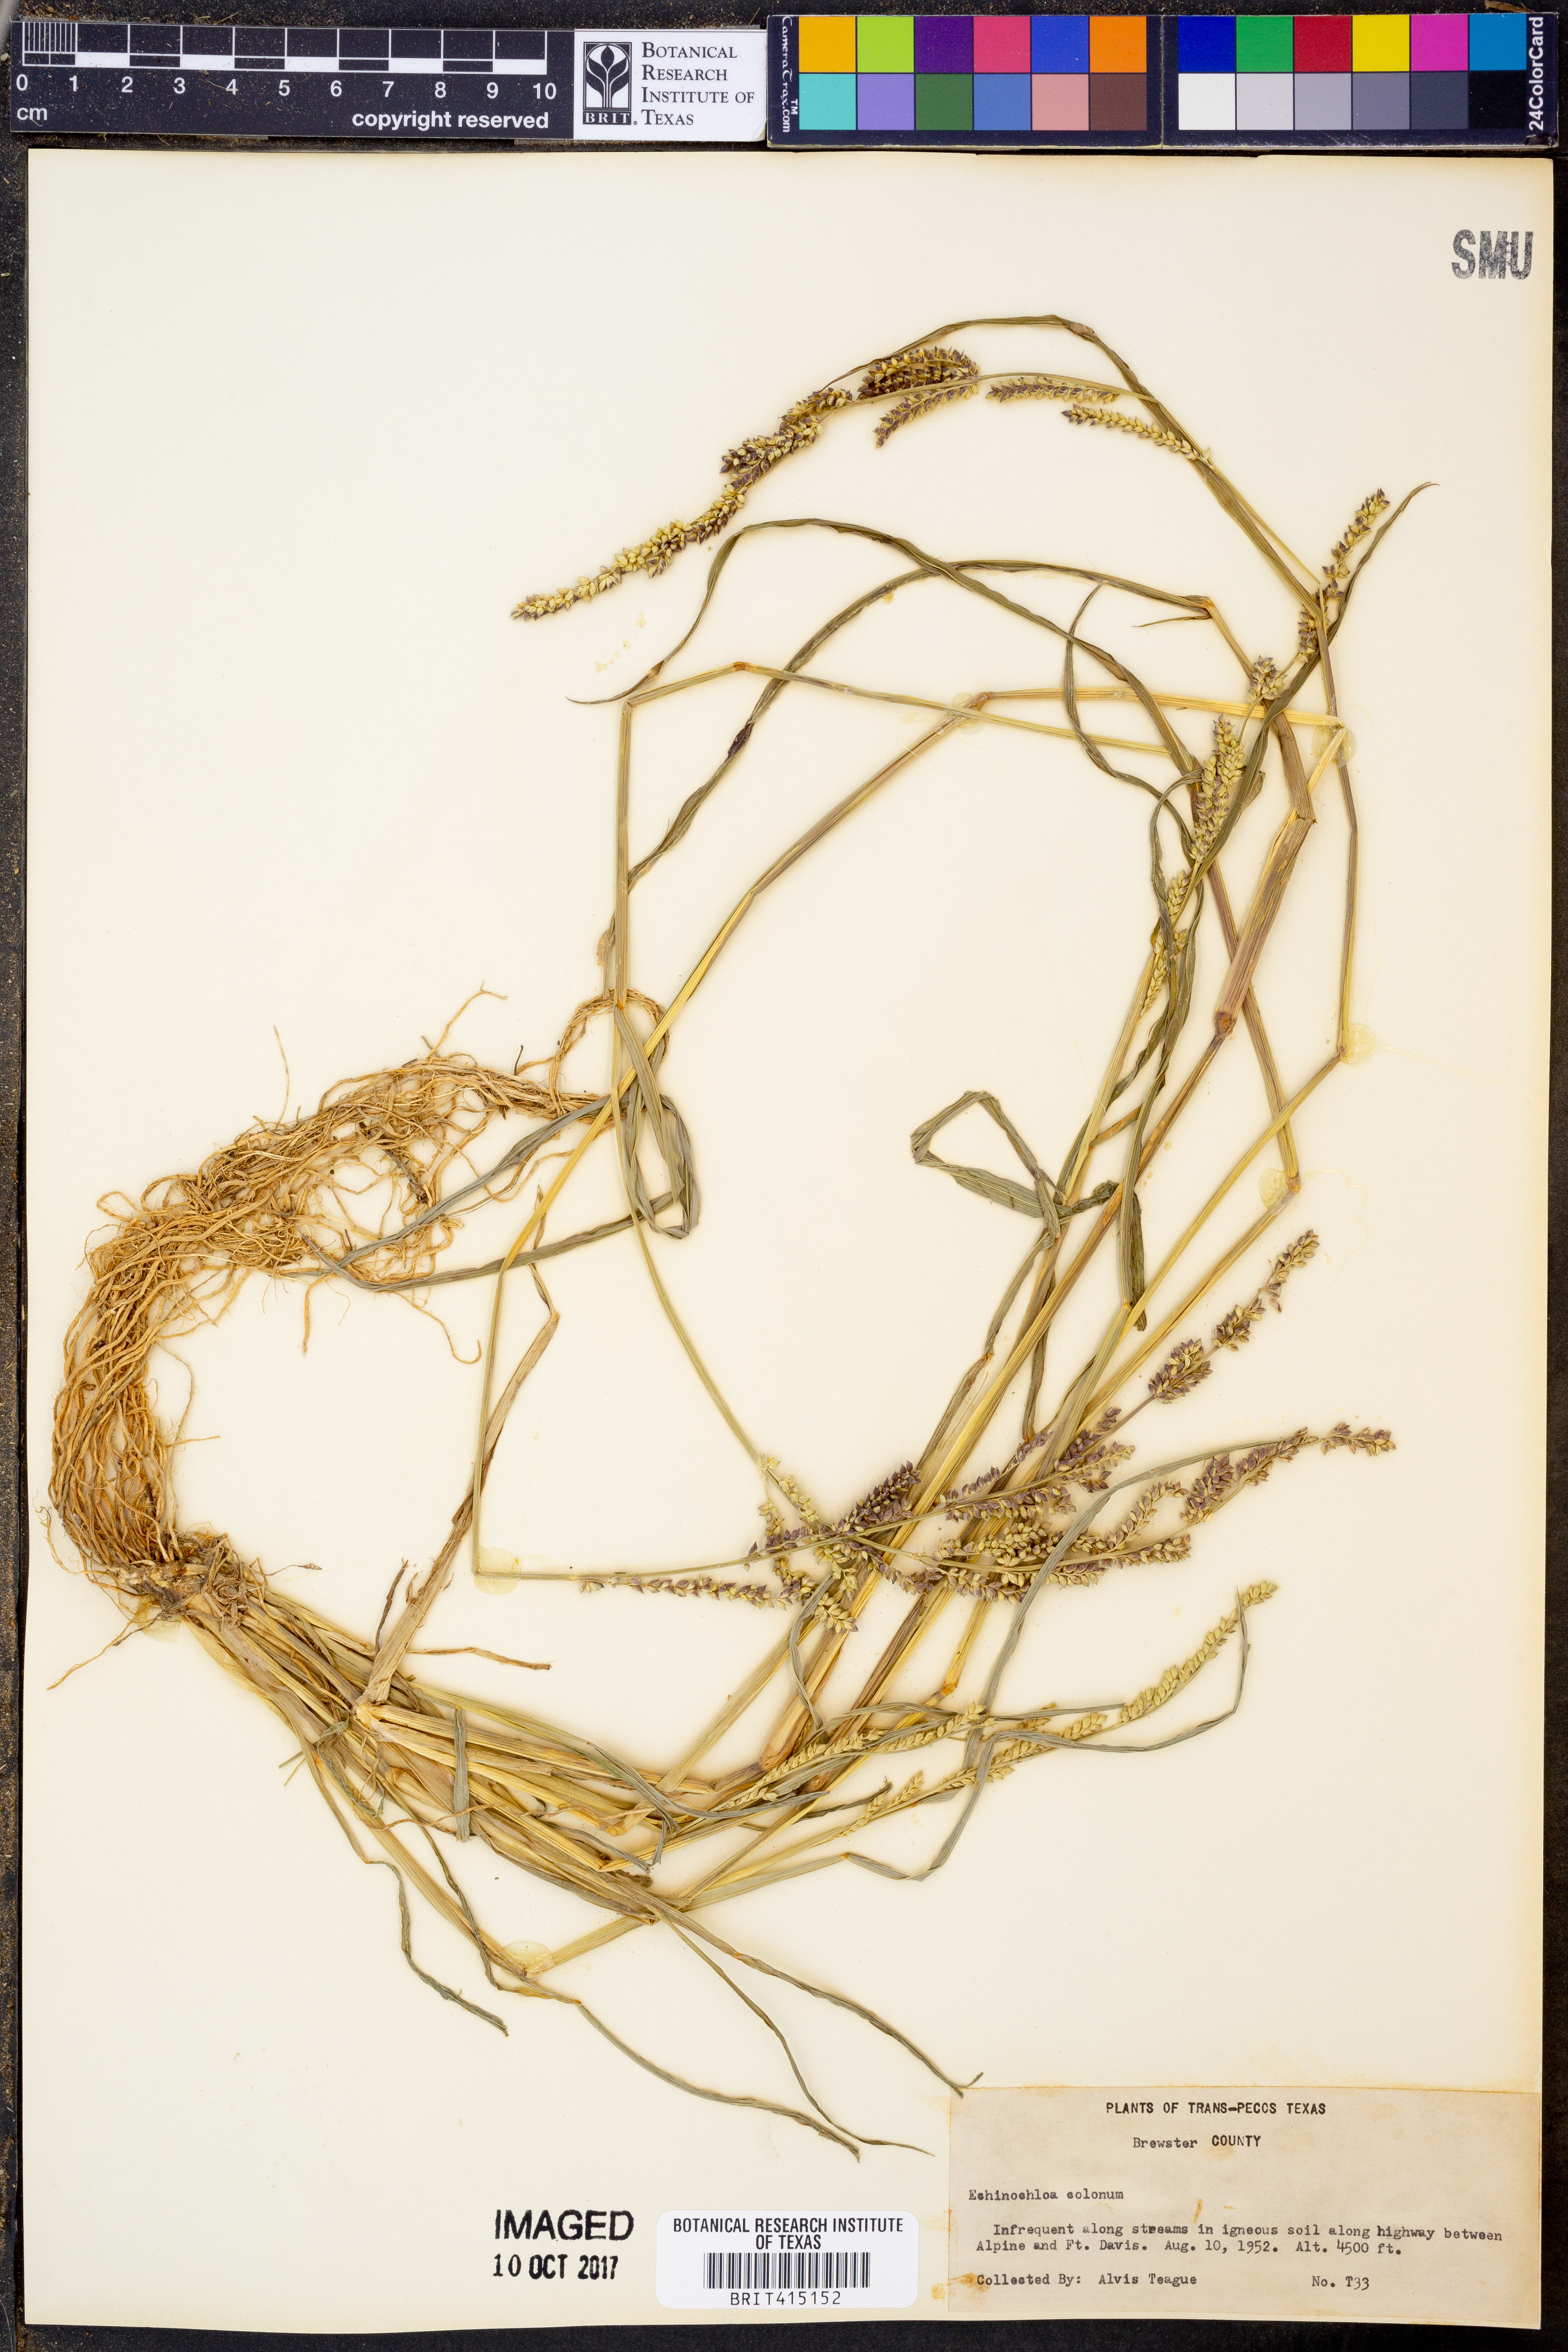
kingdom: Plantae
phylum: Tracheophyta
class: Liliopsida
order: Poales
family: Poaceae
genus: Echinochloa
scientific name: Echinochloa colonum
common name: Jungle rice
